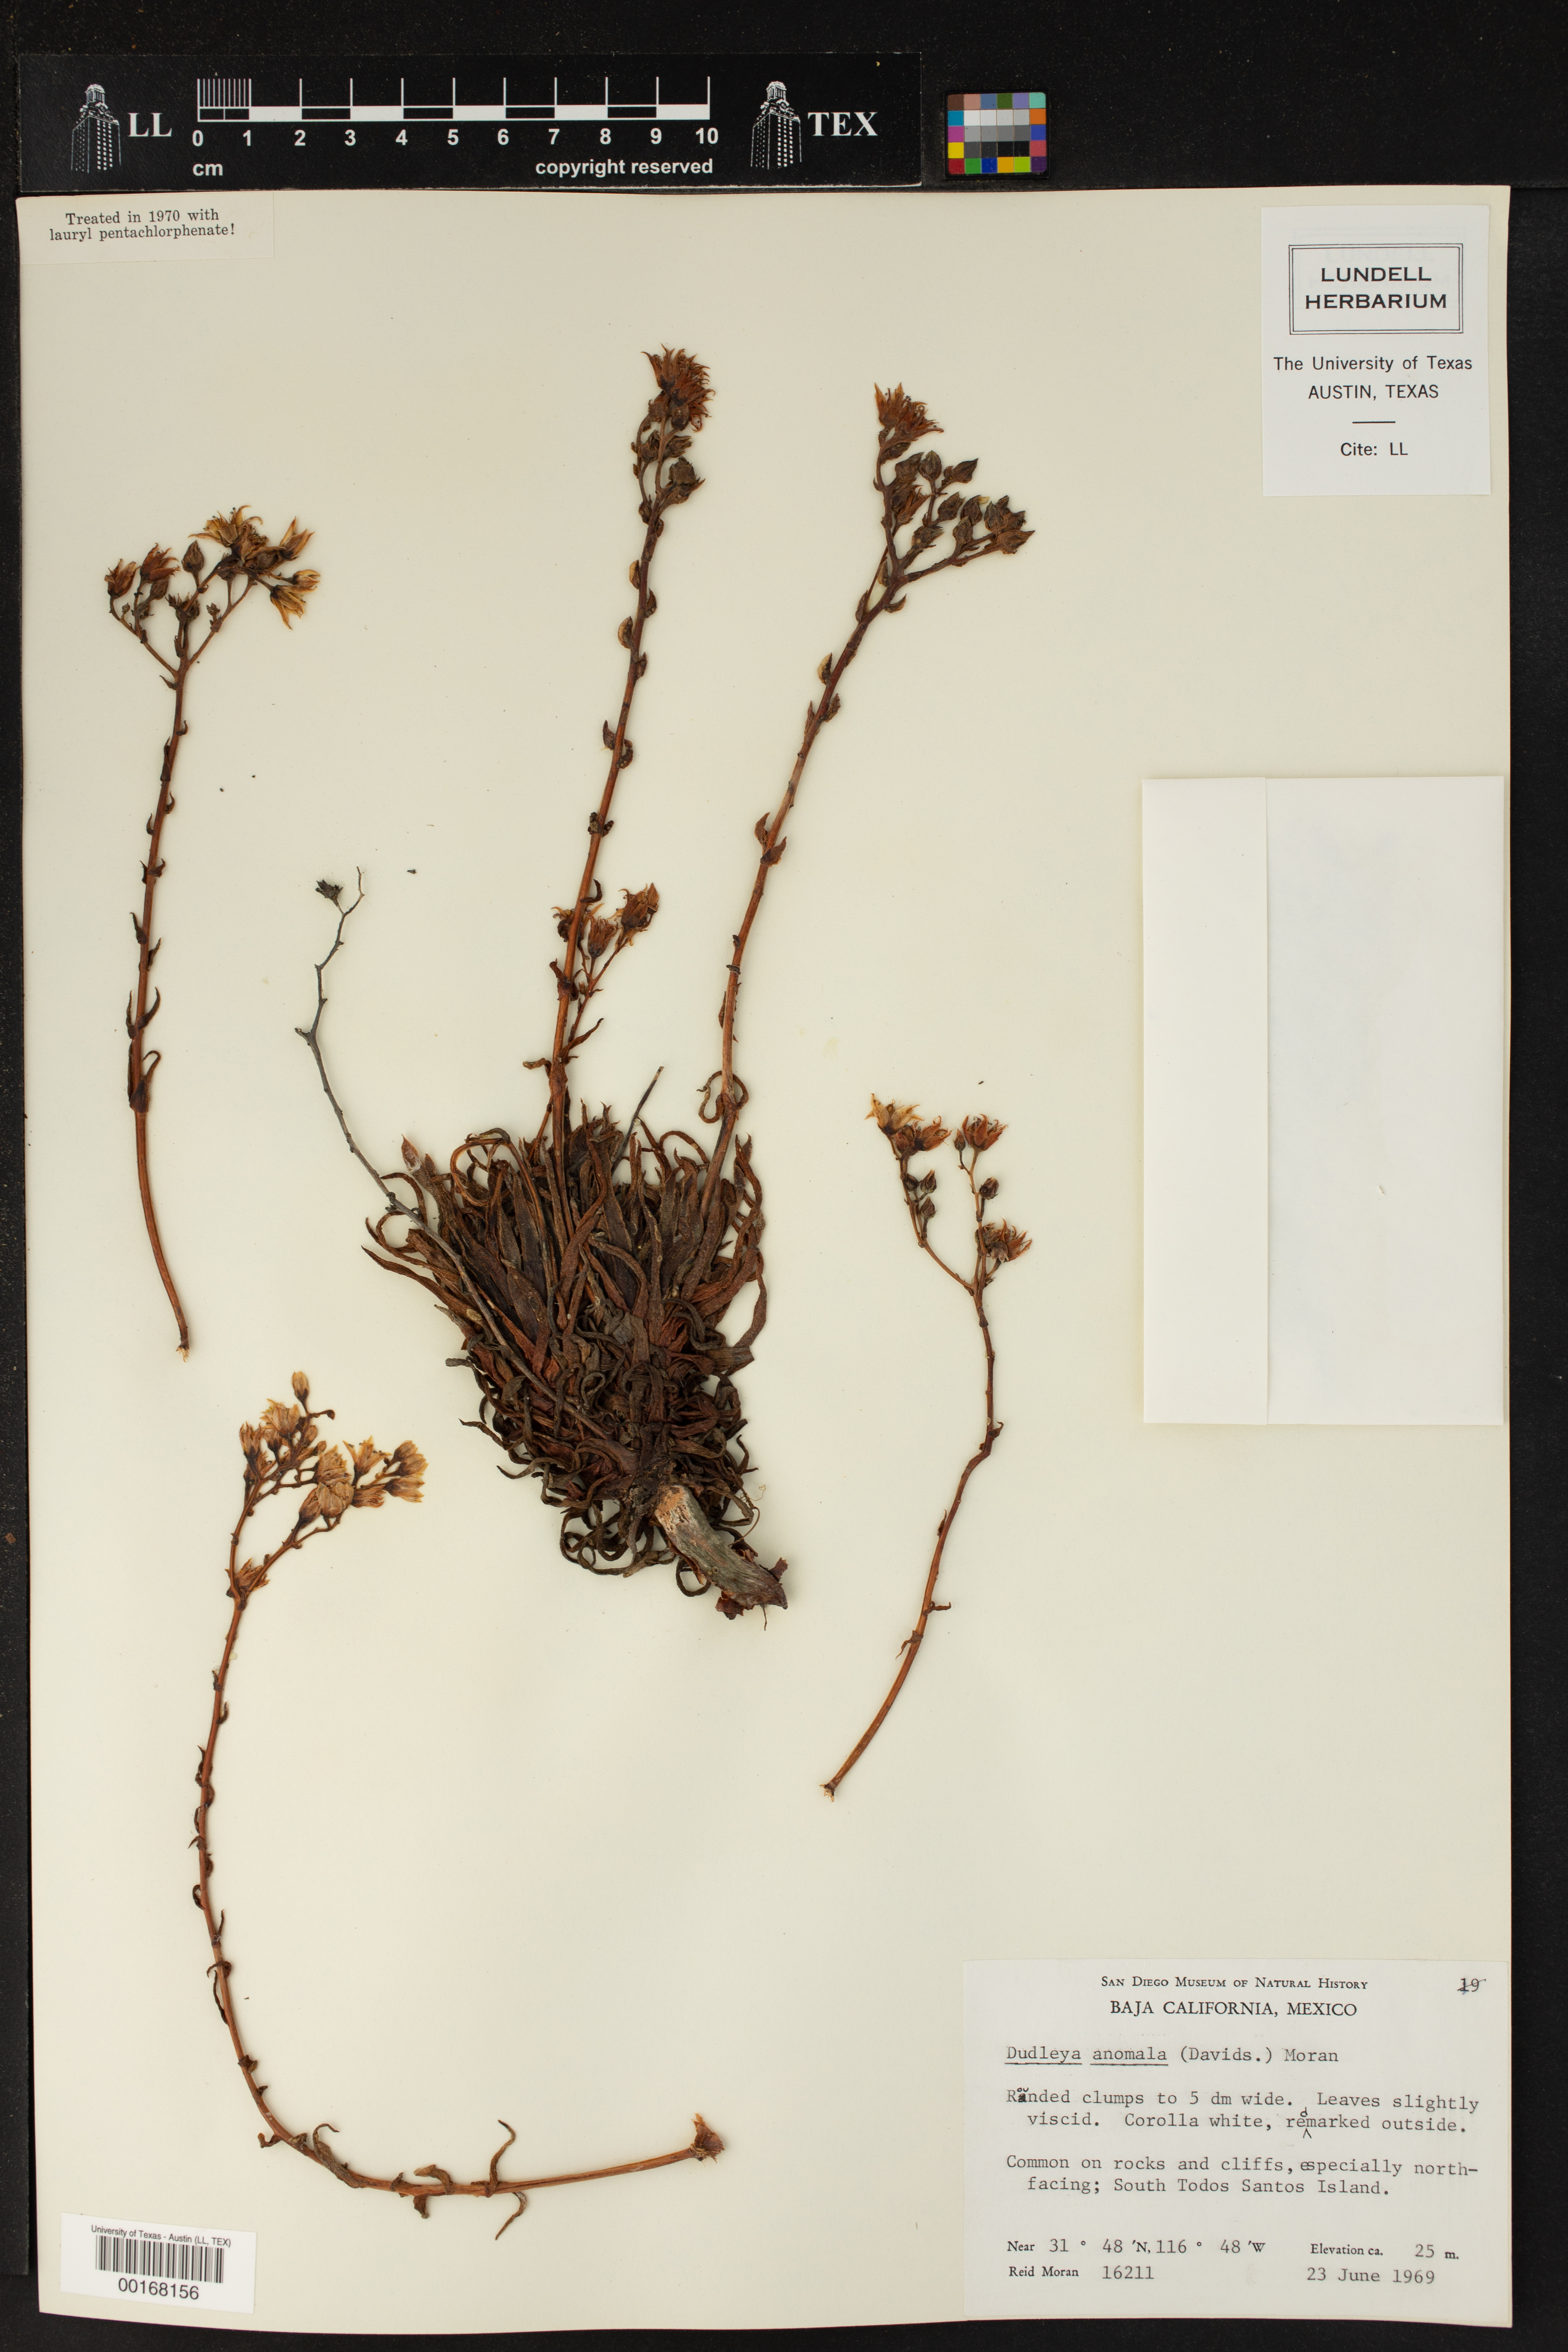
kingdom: Plantae
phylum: Tracheophyta
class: Magnoliopsida
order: Saxifragales
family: Crassulaceae
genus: Dudleya
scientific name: Dudleya anomala
